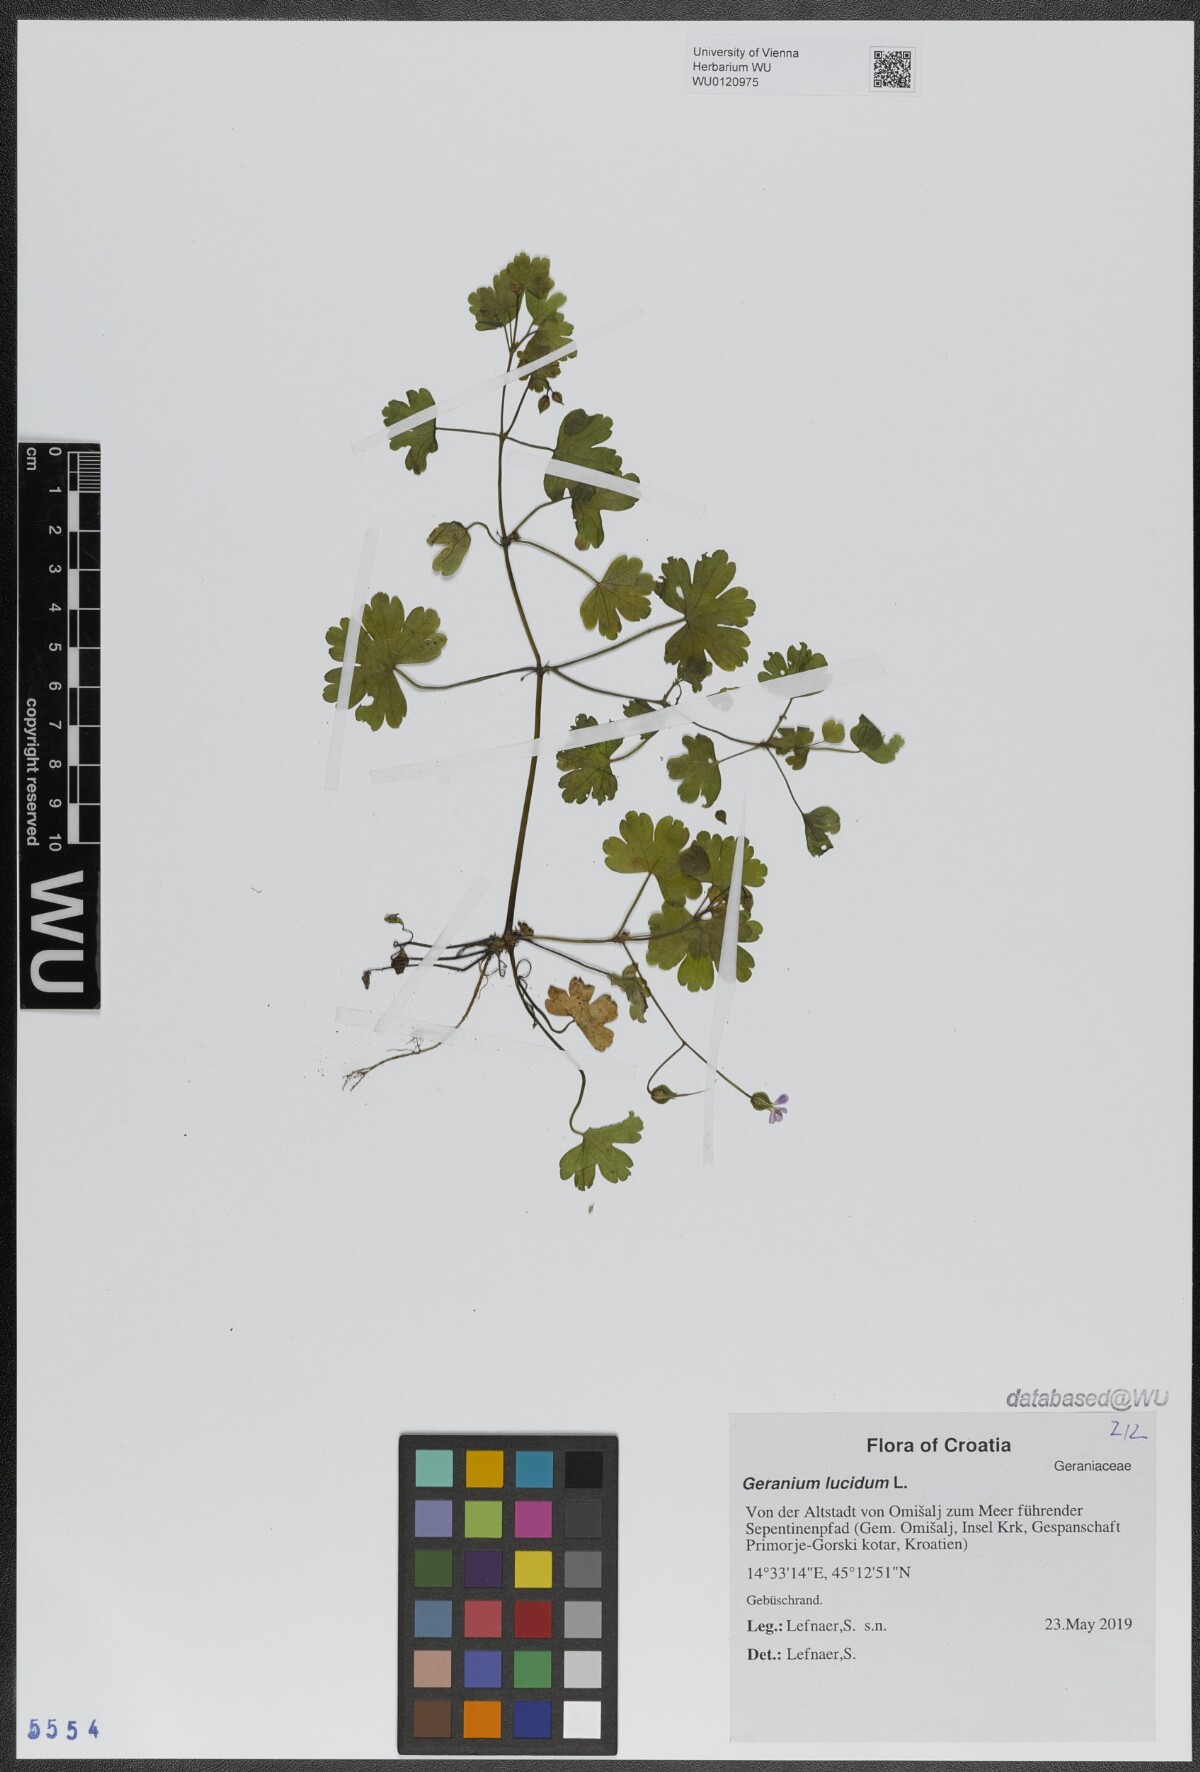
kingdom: Plantae
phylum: Tracheophyta
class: Magnoliopsida
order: Geraniales
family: Geraniaceae
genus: Geranium
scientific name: Geranium lucidum
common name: Shining crane's-bill
